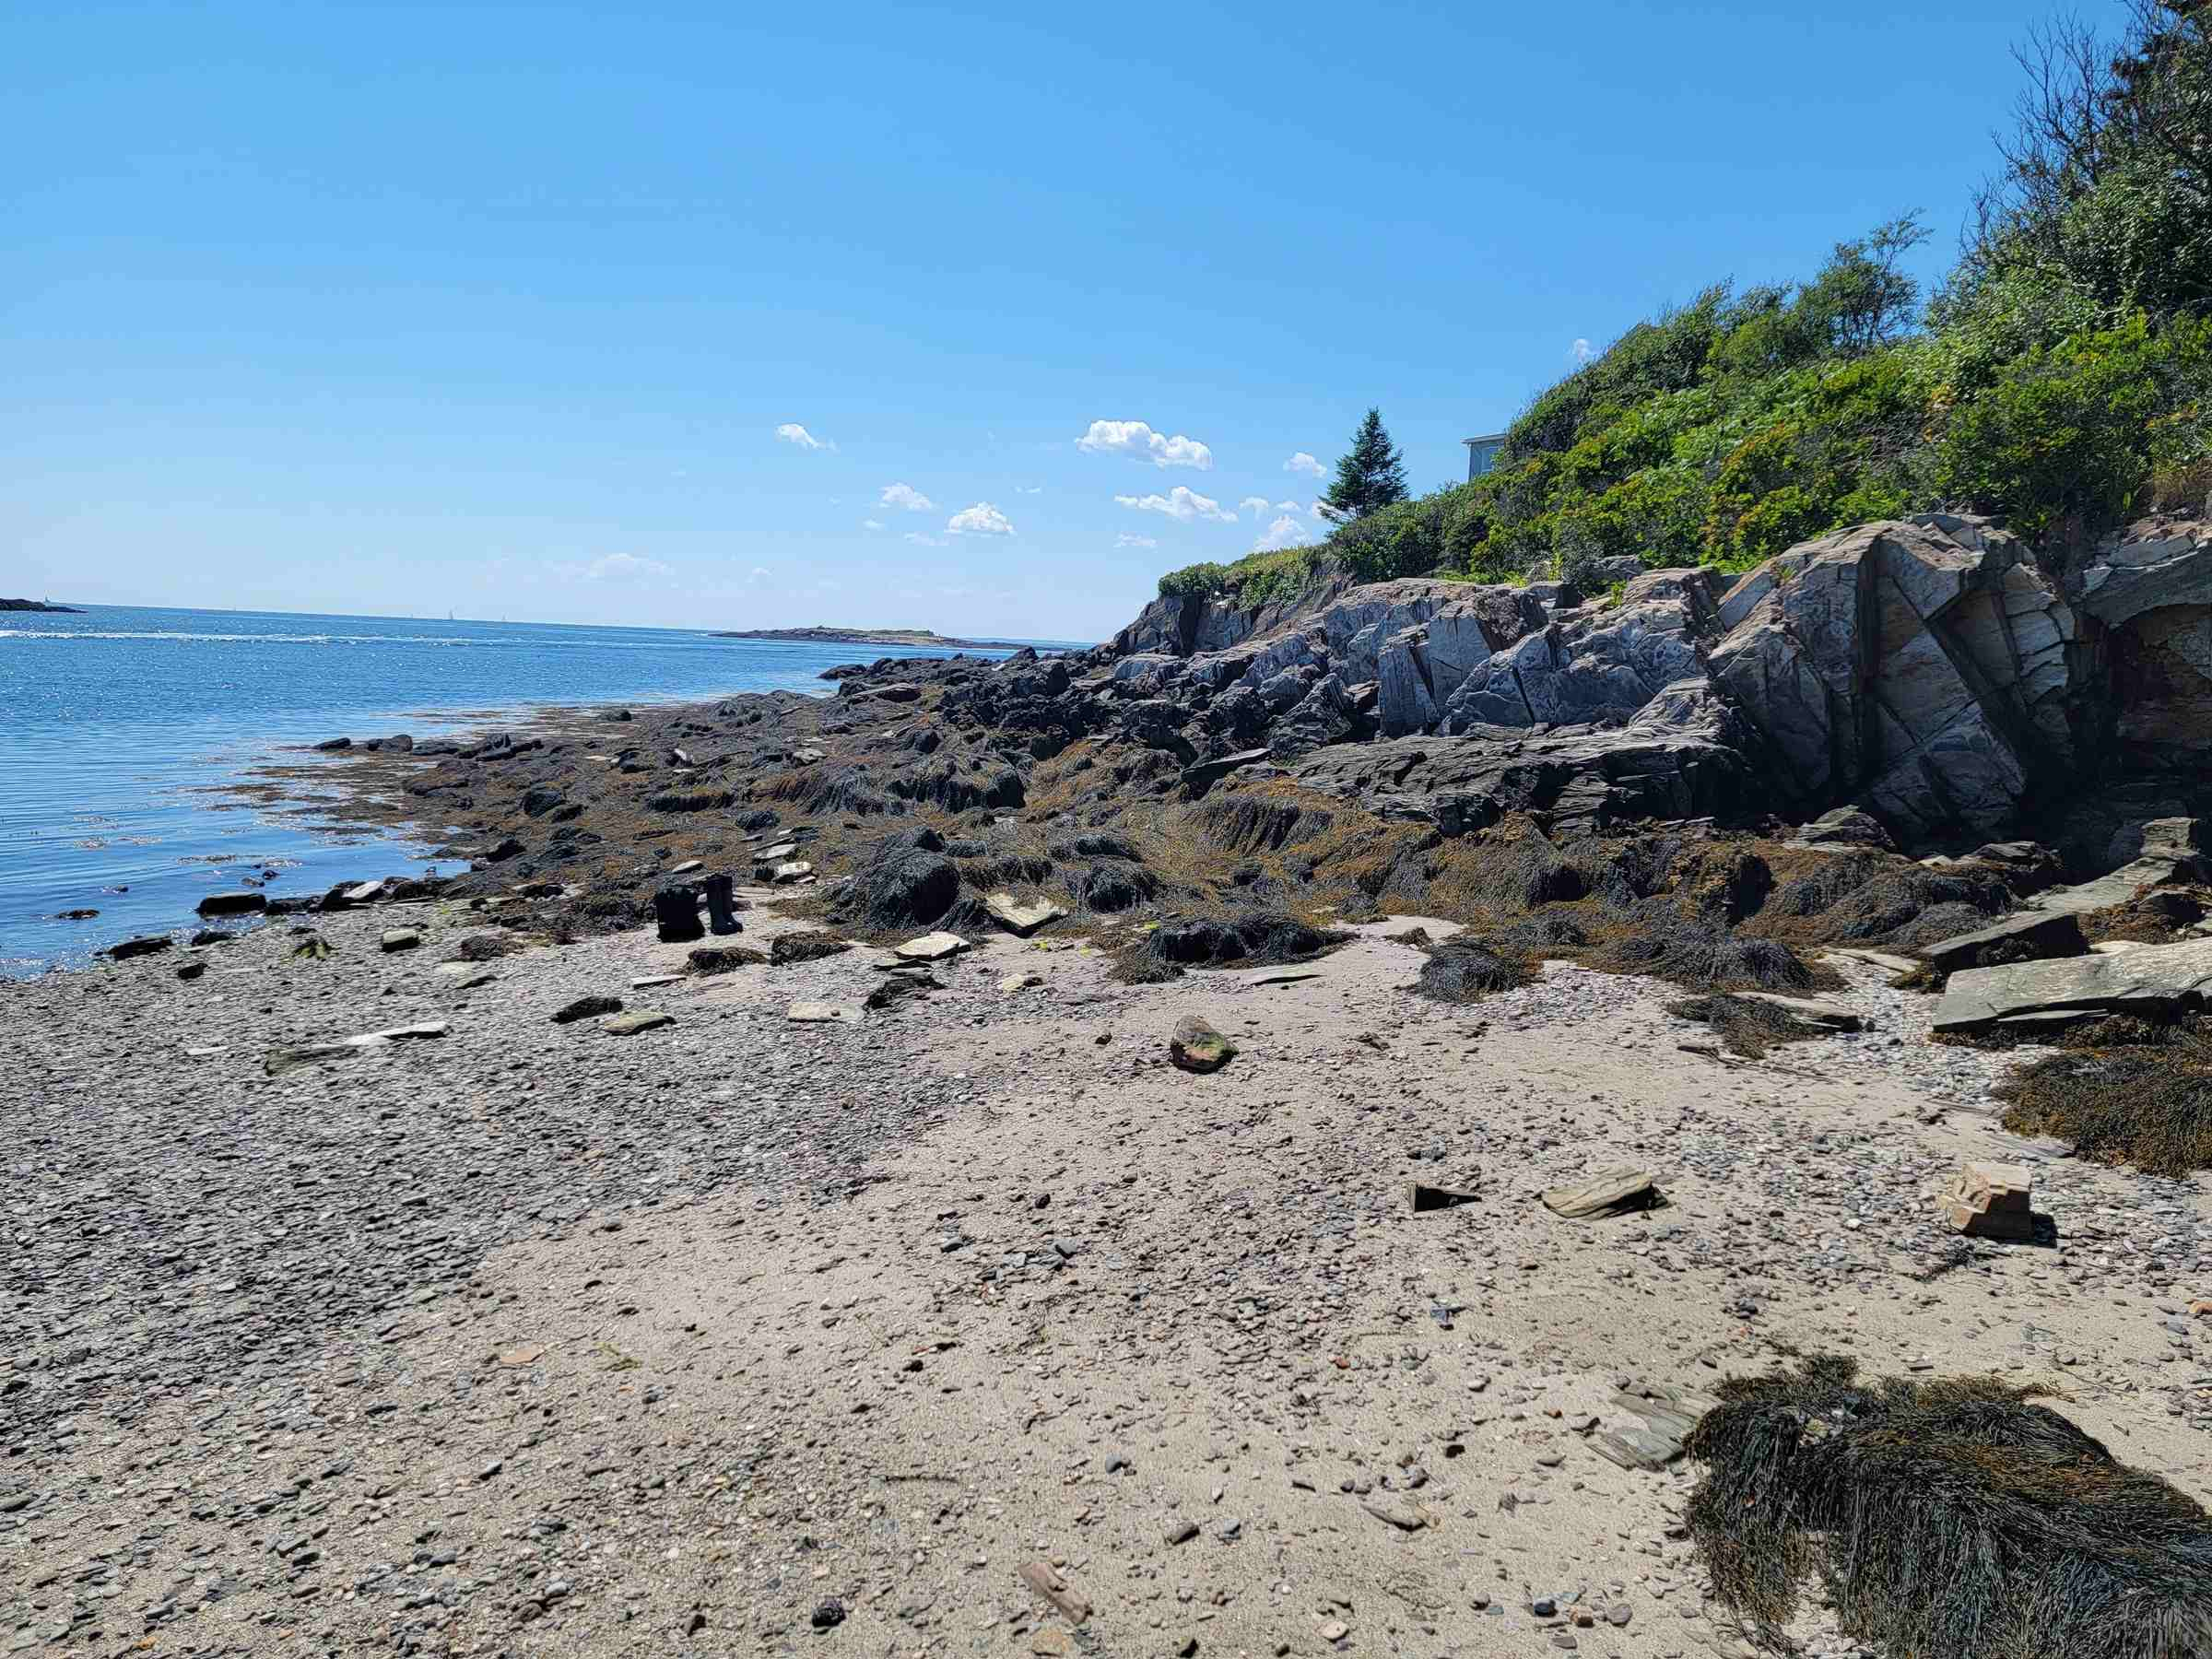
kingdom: Chromista
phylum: Ochrophyta
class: Phaeophyceae
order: Fucales
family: Fucaceae
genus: Ascophyllum
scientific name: Ascophyllum nodosum
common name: Rockweed
